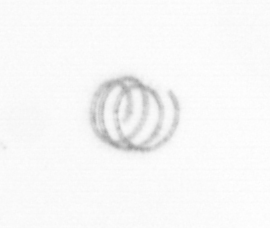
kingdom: Chromista
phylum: Ochrophyta
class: Bacillariophyceae
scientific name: Bacillariophyceae
